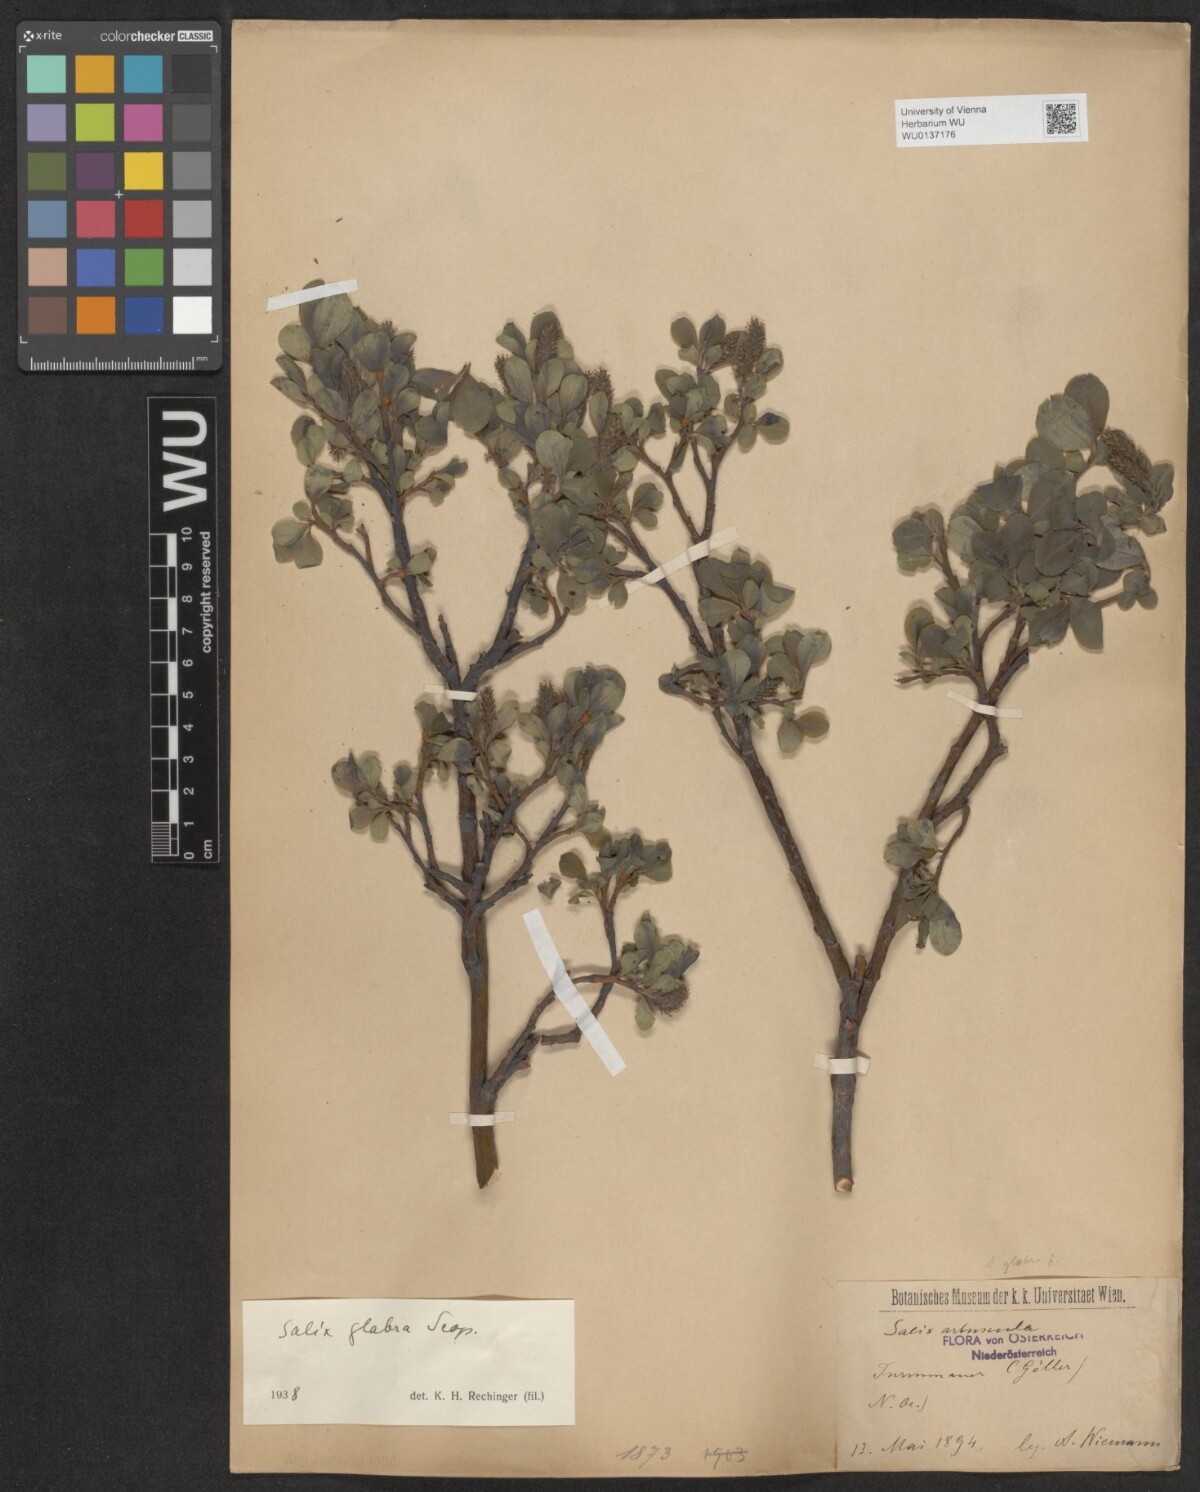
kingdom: Plantae
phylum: Tracheophyta
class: Magnoliopsida
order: Malpighiales
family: Salicaceae
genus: Salix
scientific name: Salix glabra
